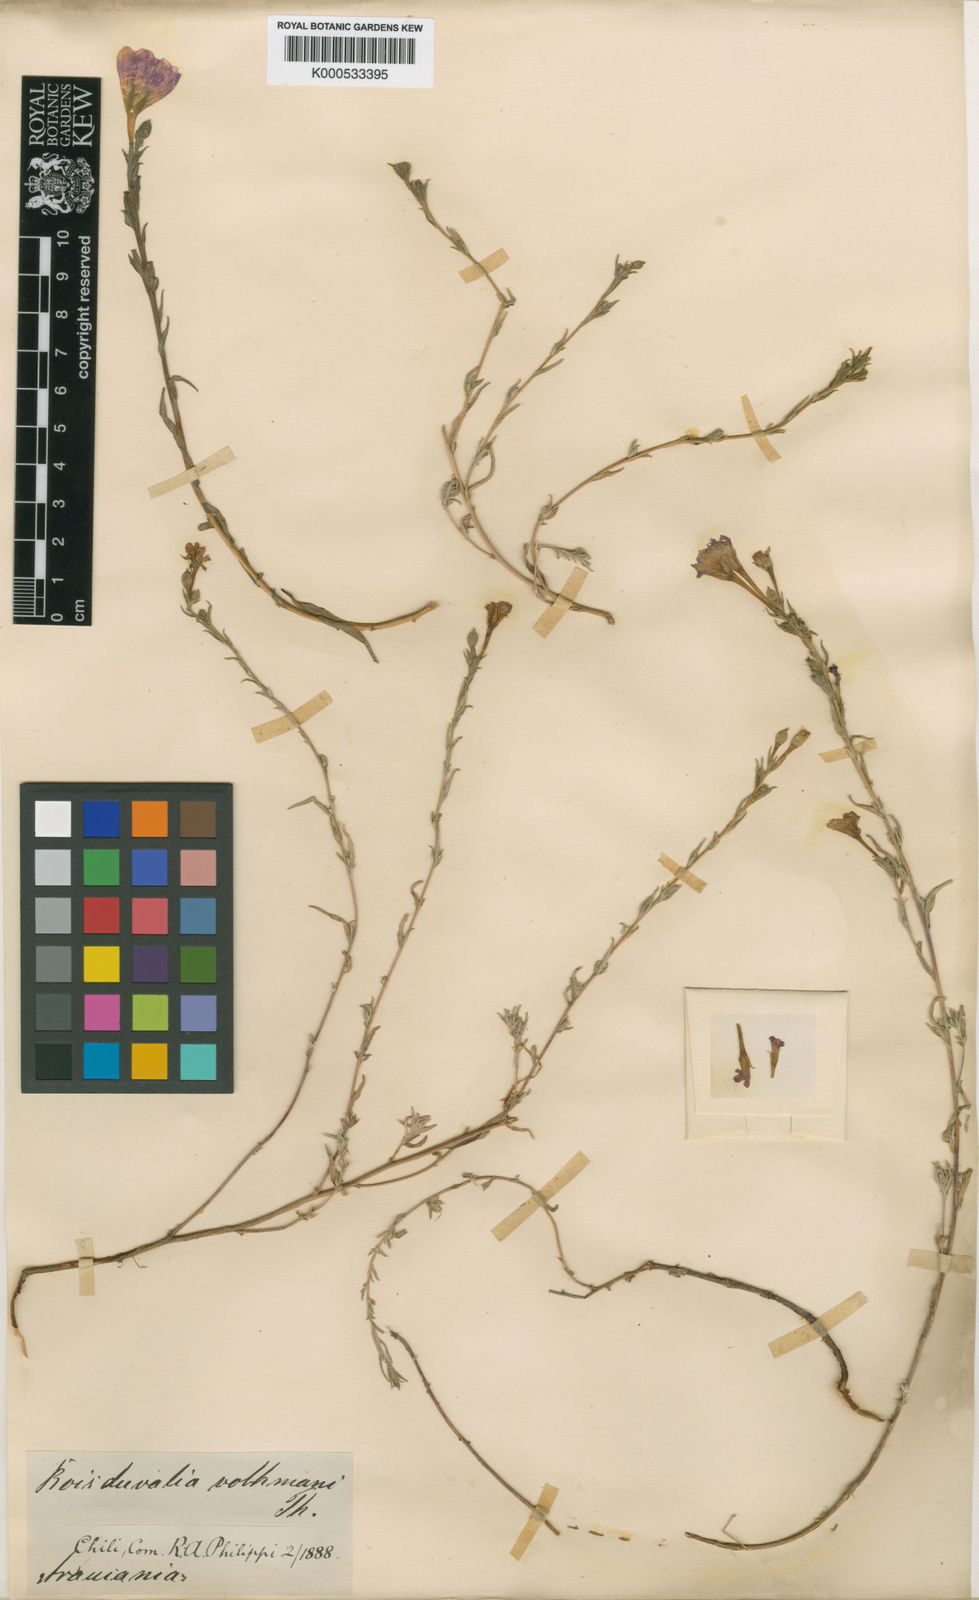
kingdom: Plantae
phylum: Tracheophyta
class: Magnoliopsida
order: Myrtales
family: Onagraceae
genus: Epilobium
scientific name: Epilobium subdentatum
